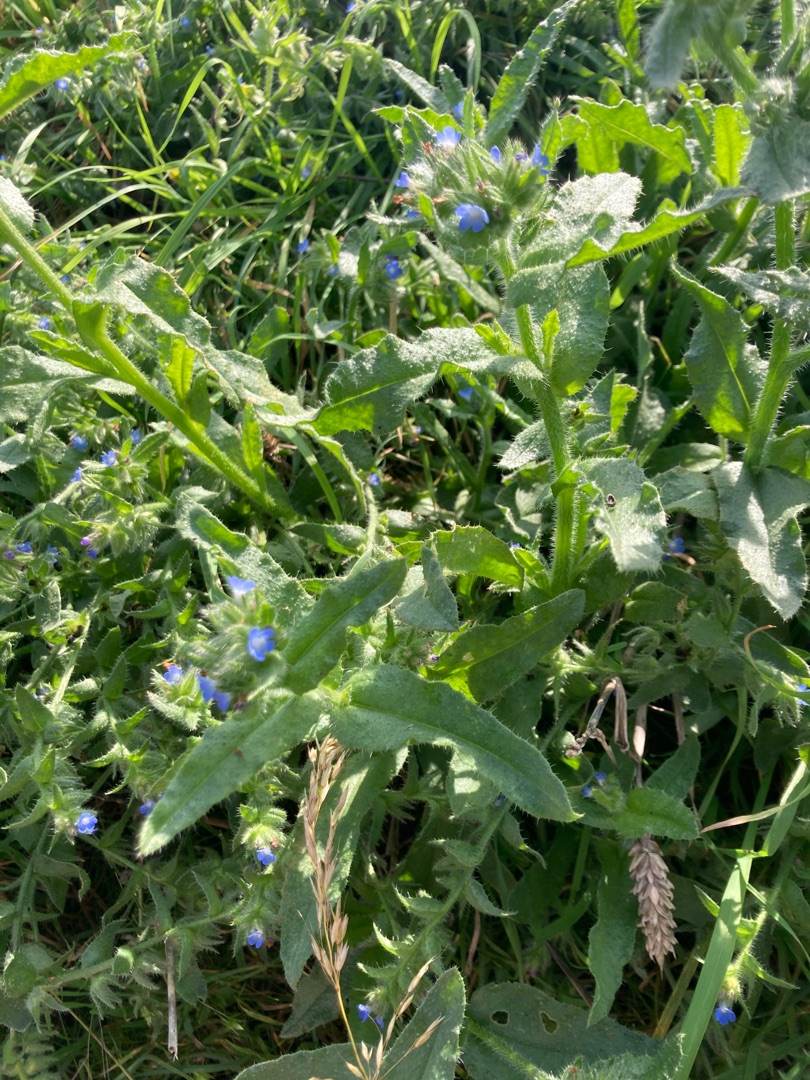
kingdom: Plantae
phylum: Tracheophyta
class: Magnoliopsida
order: Boraginales
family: Boraginaceae
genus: Lycopsis
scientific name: Lycopsis arvensis
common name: Krumhals
